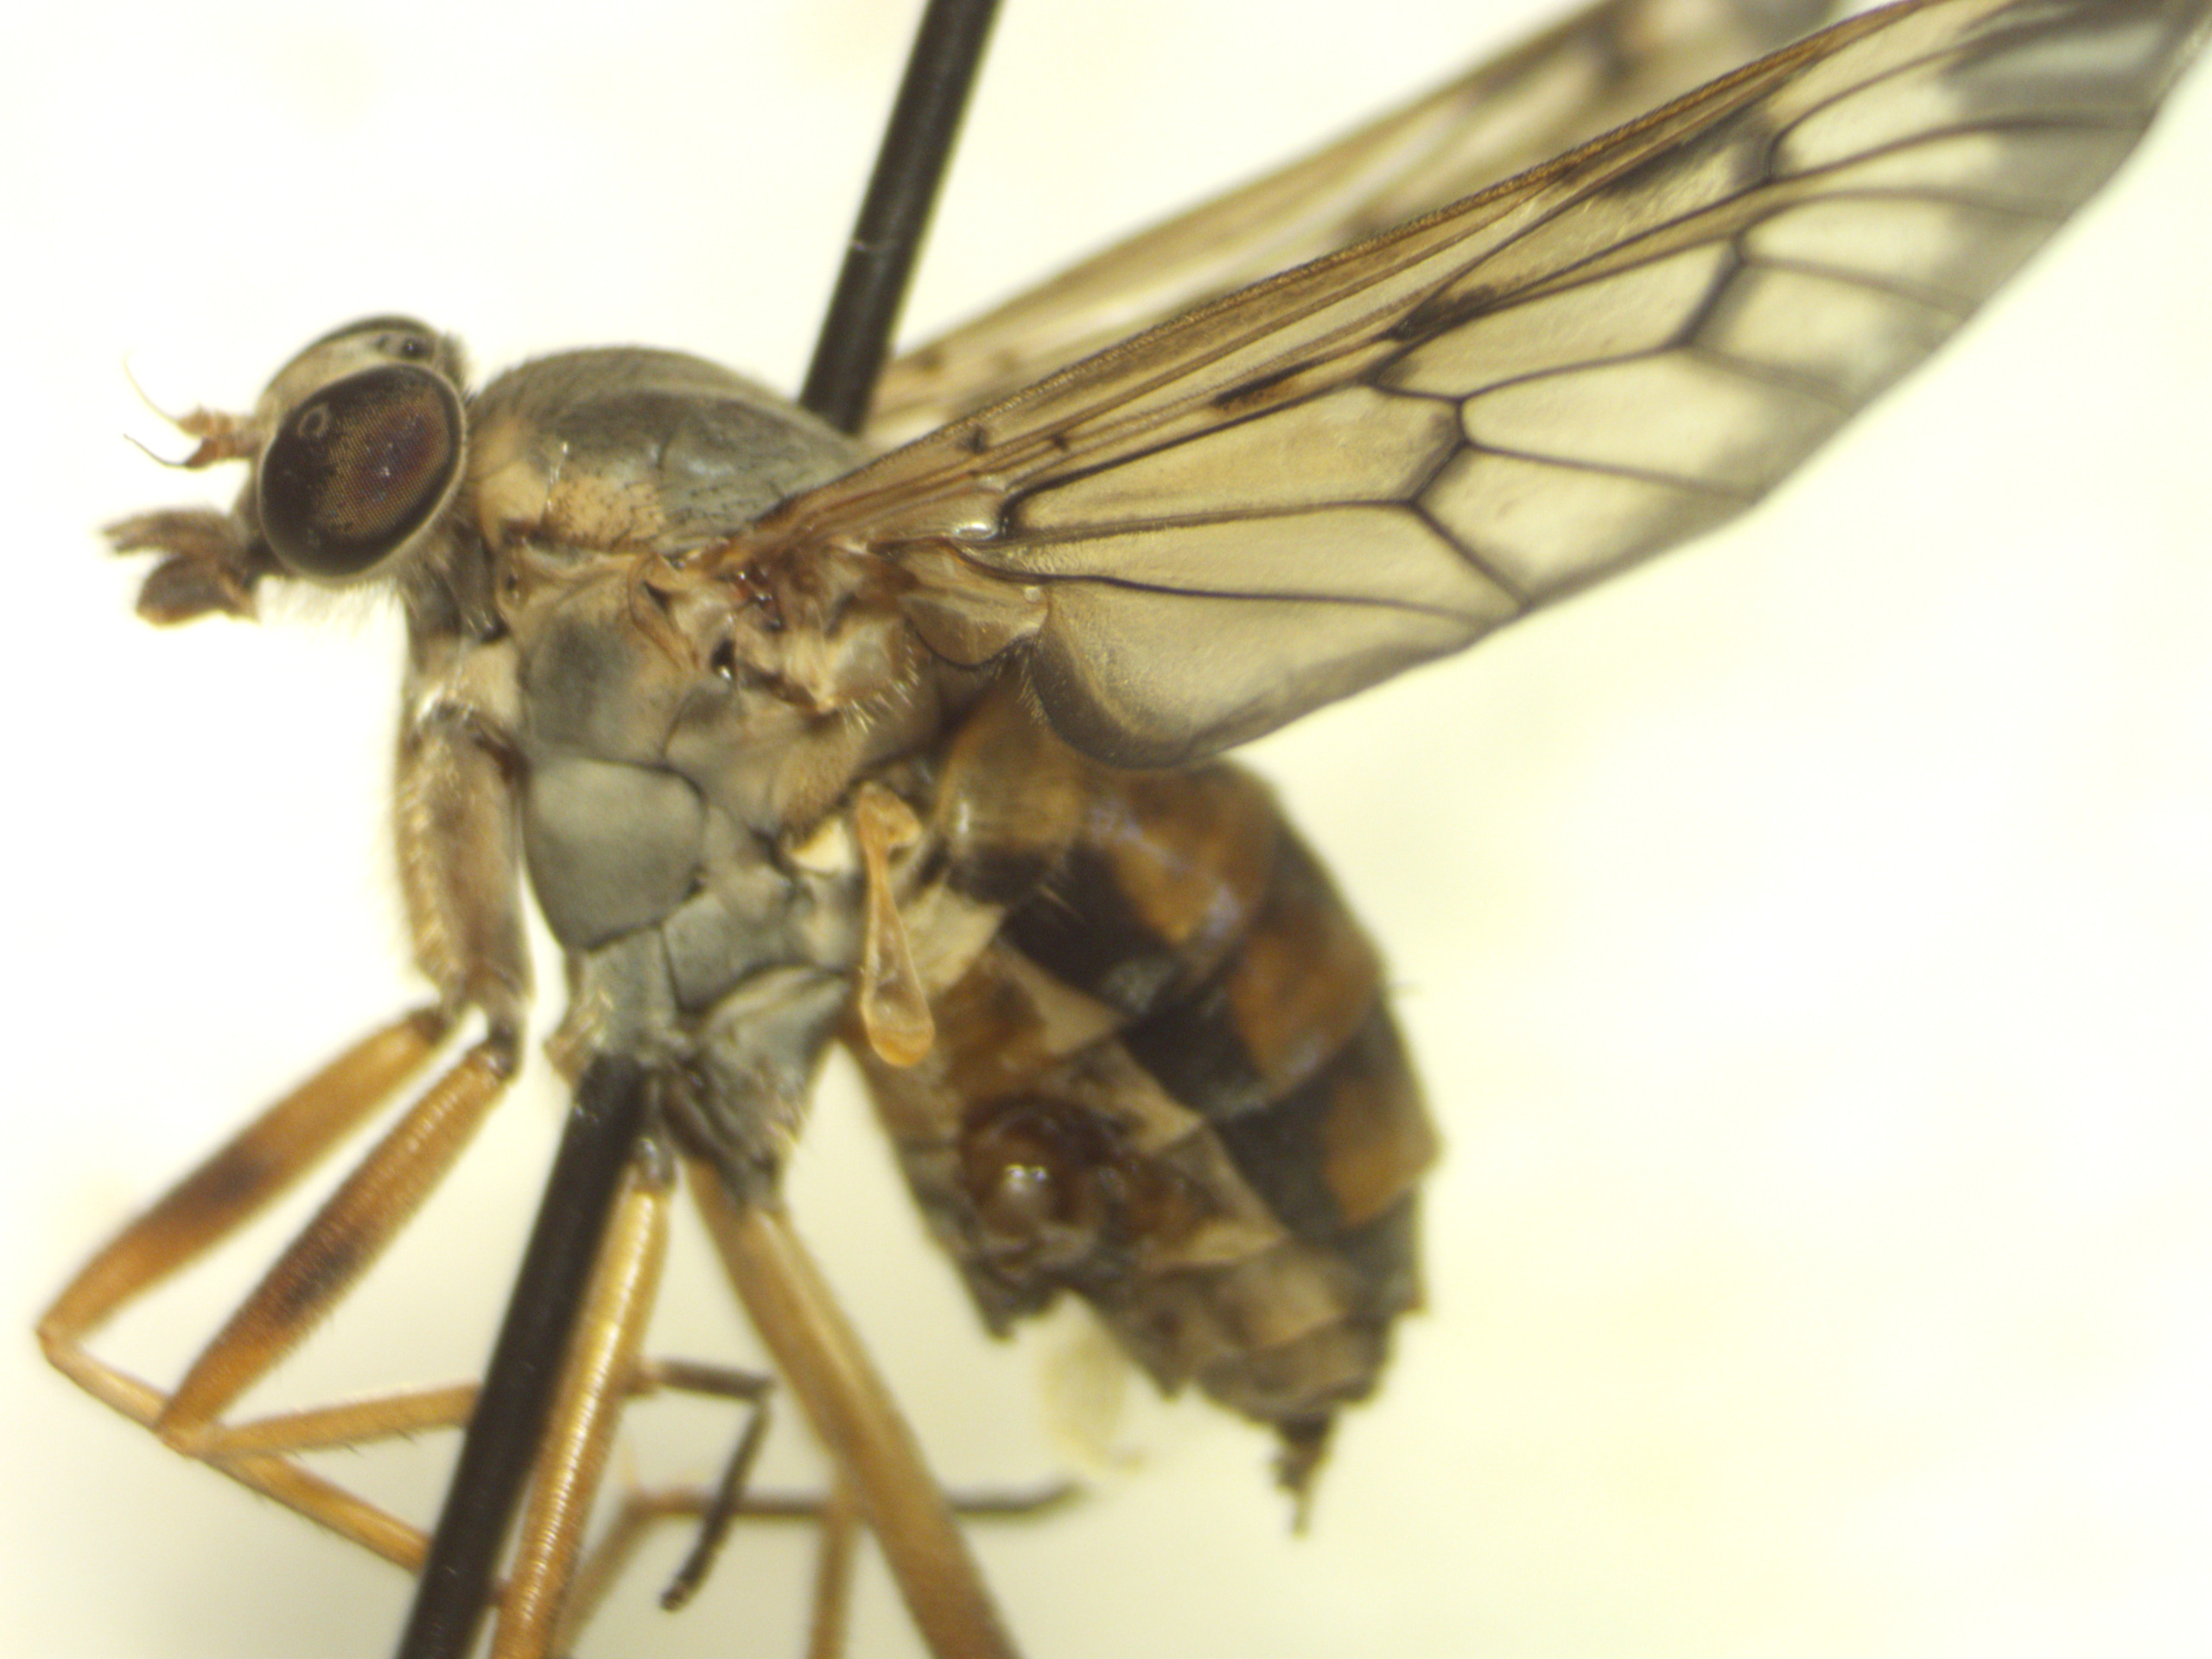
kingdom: Animalia
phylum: Arthropoda
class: Insecta
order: Diptera
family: Rhagionidae
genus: Rhagio
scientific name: Rhagio scolopacea
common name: Almindelig sneppeflue
